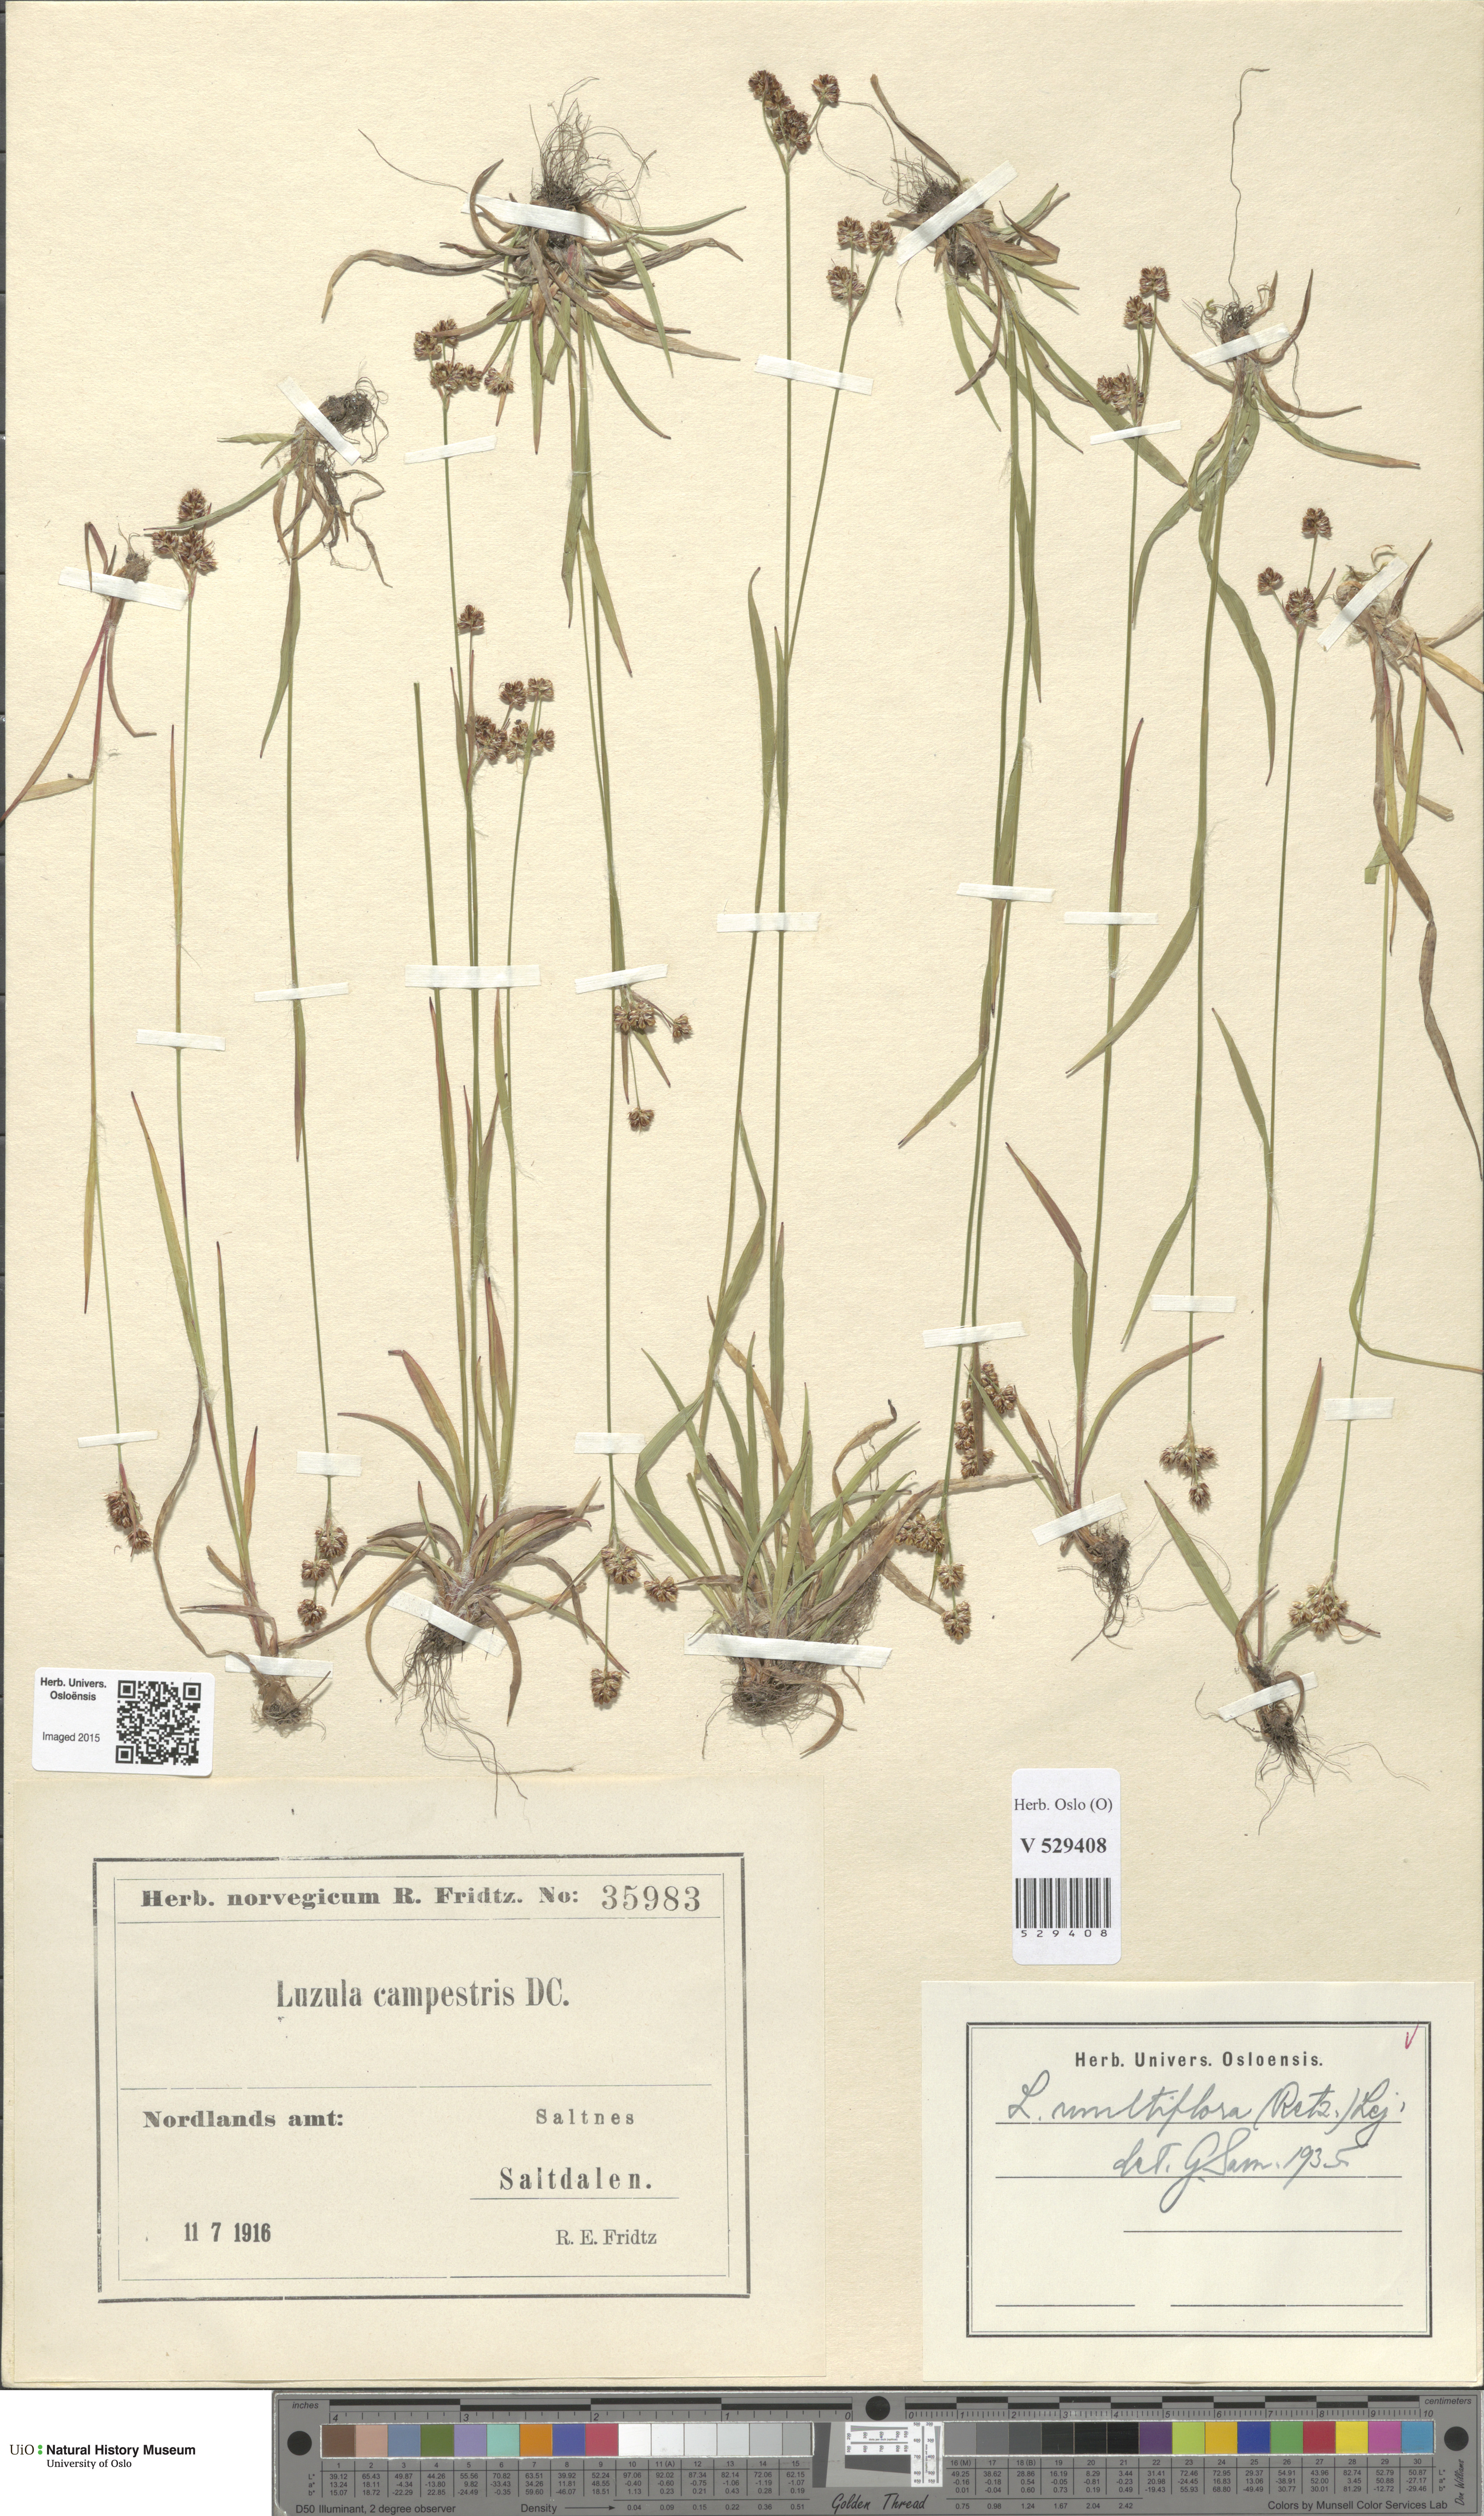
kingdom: Plantae
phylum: Tracheophyta
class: Liliopsida
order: Poales
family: Juncaceae
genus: Luzula
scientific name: Luzula multiflora
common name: Heath wood-rush
